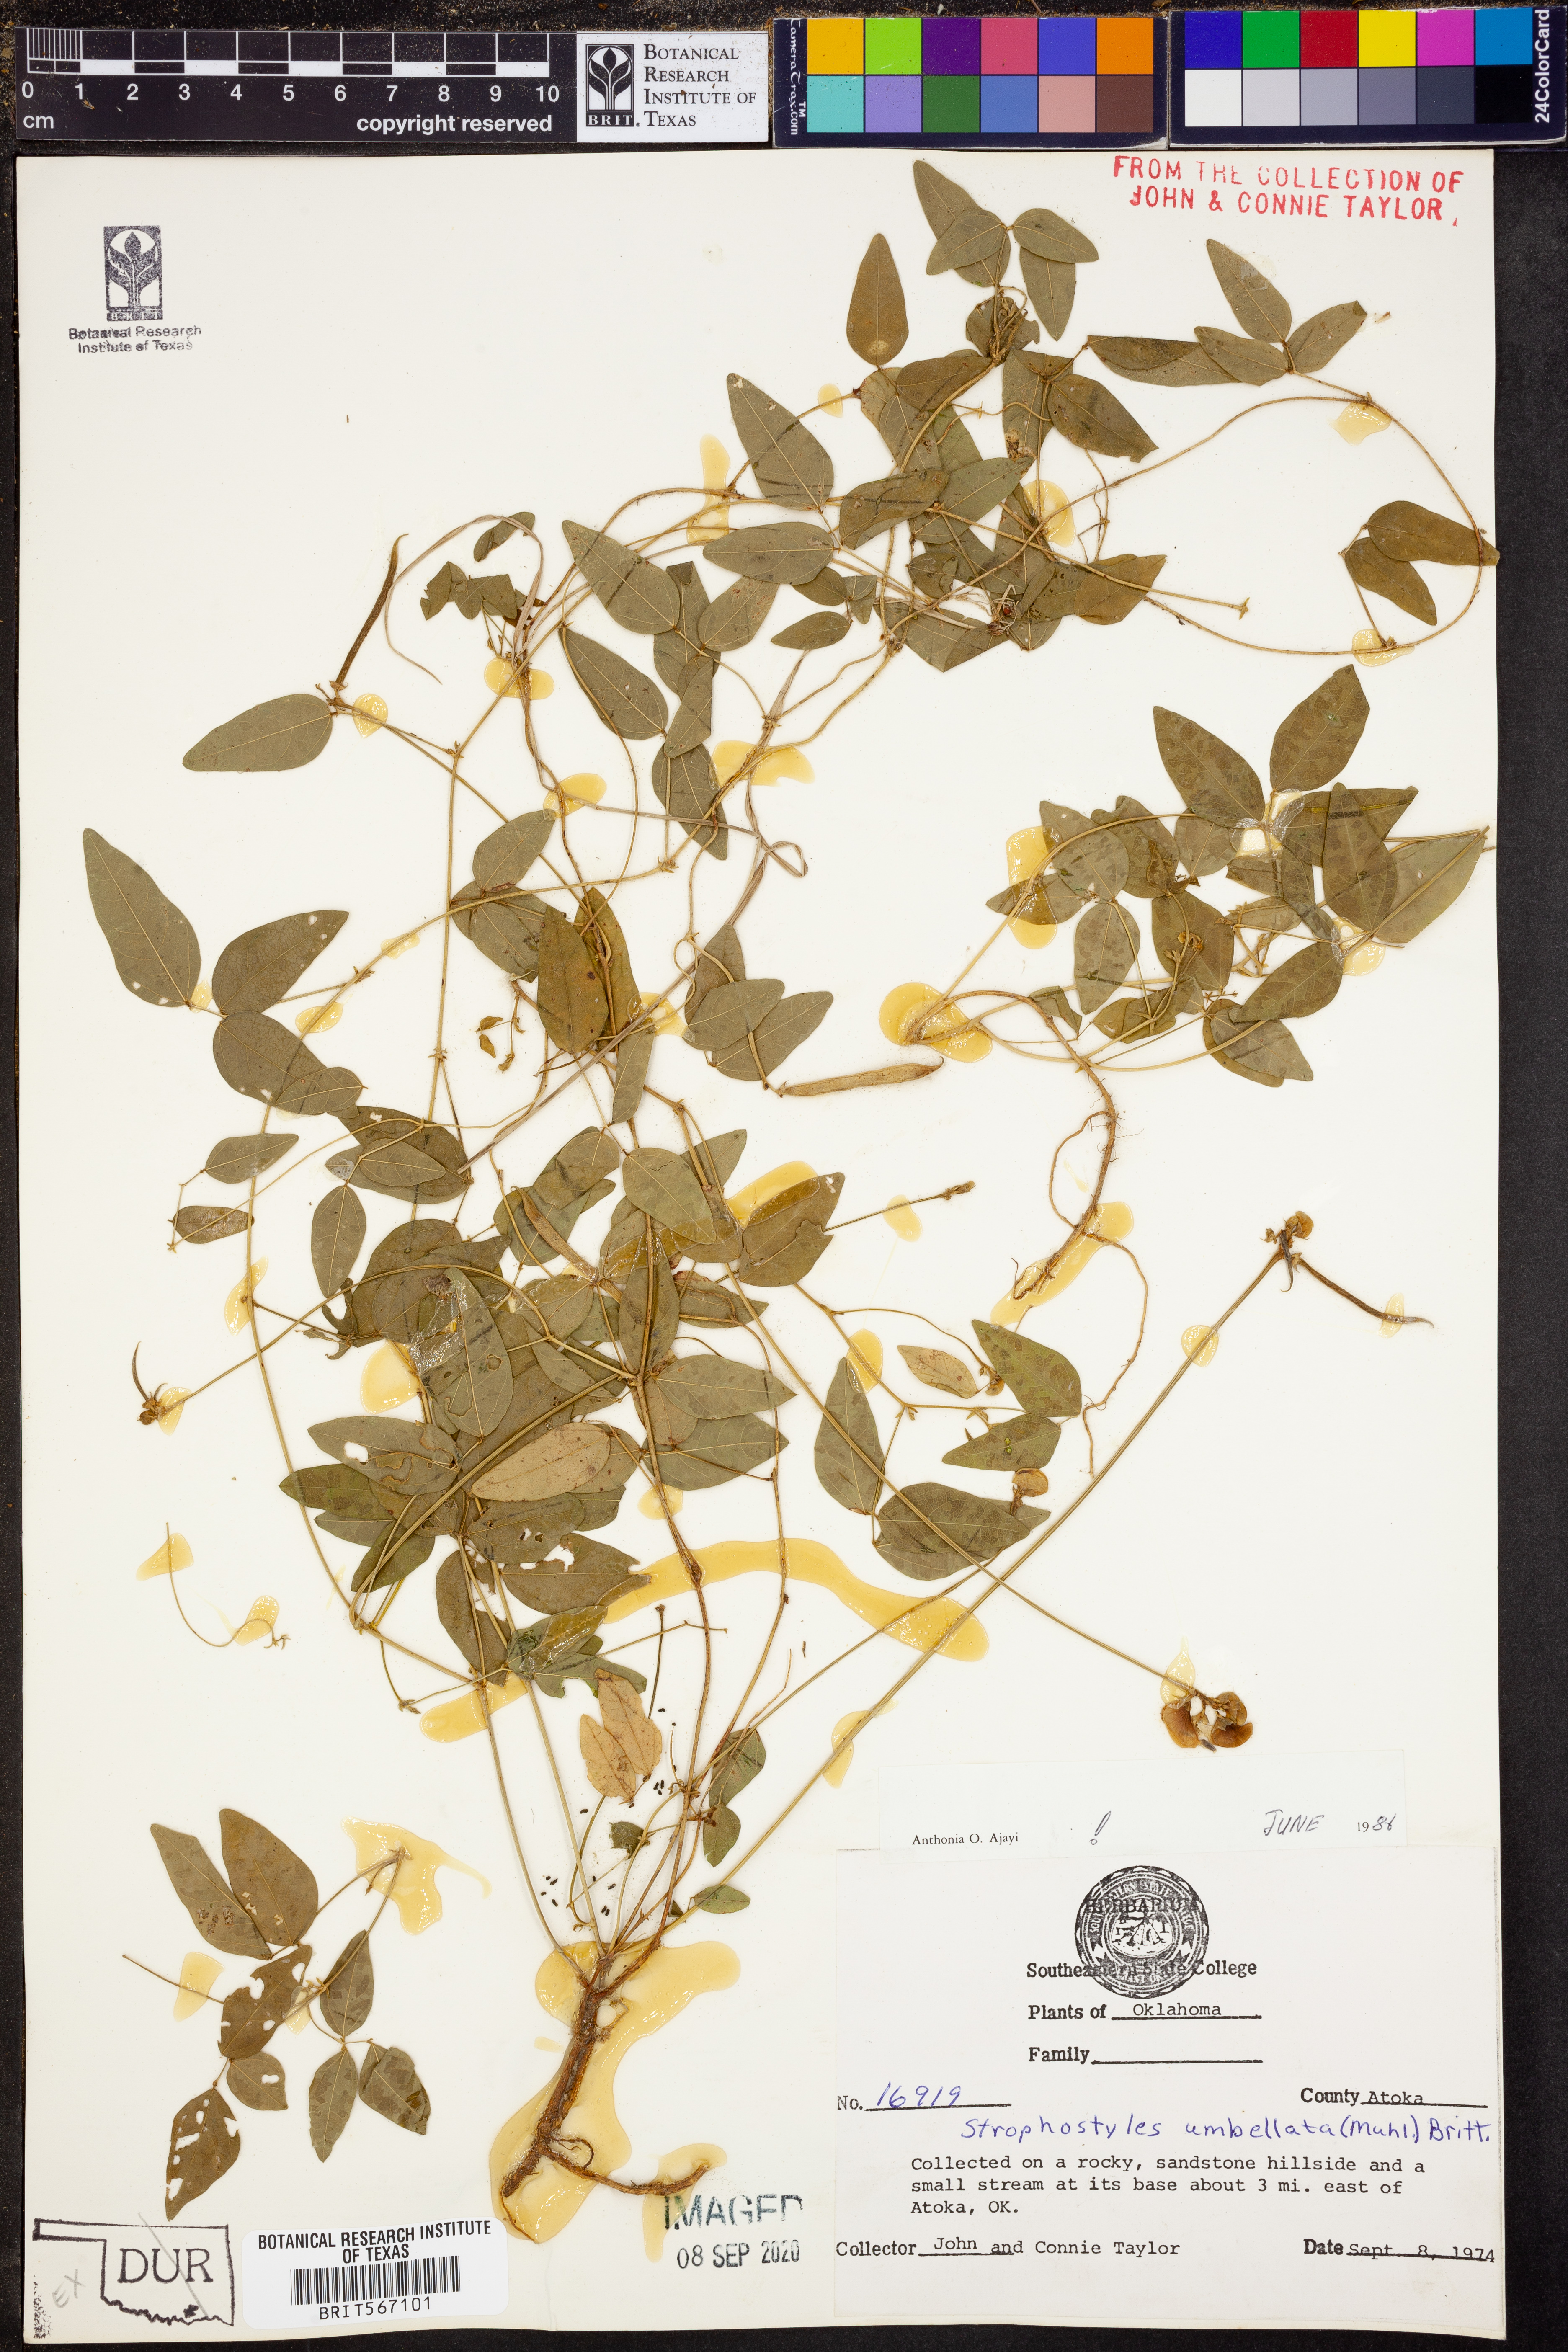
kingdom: Plantae
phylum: Tracheophyta
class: Magnoliopsida
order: Fabales
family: Fabaceae
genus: Strophostyles
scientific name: Strophostyles umbellata
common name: Perennial wild bean
